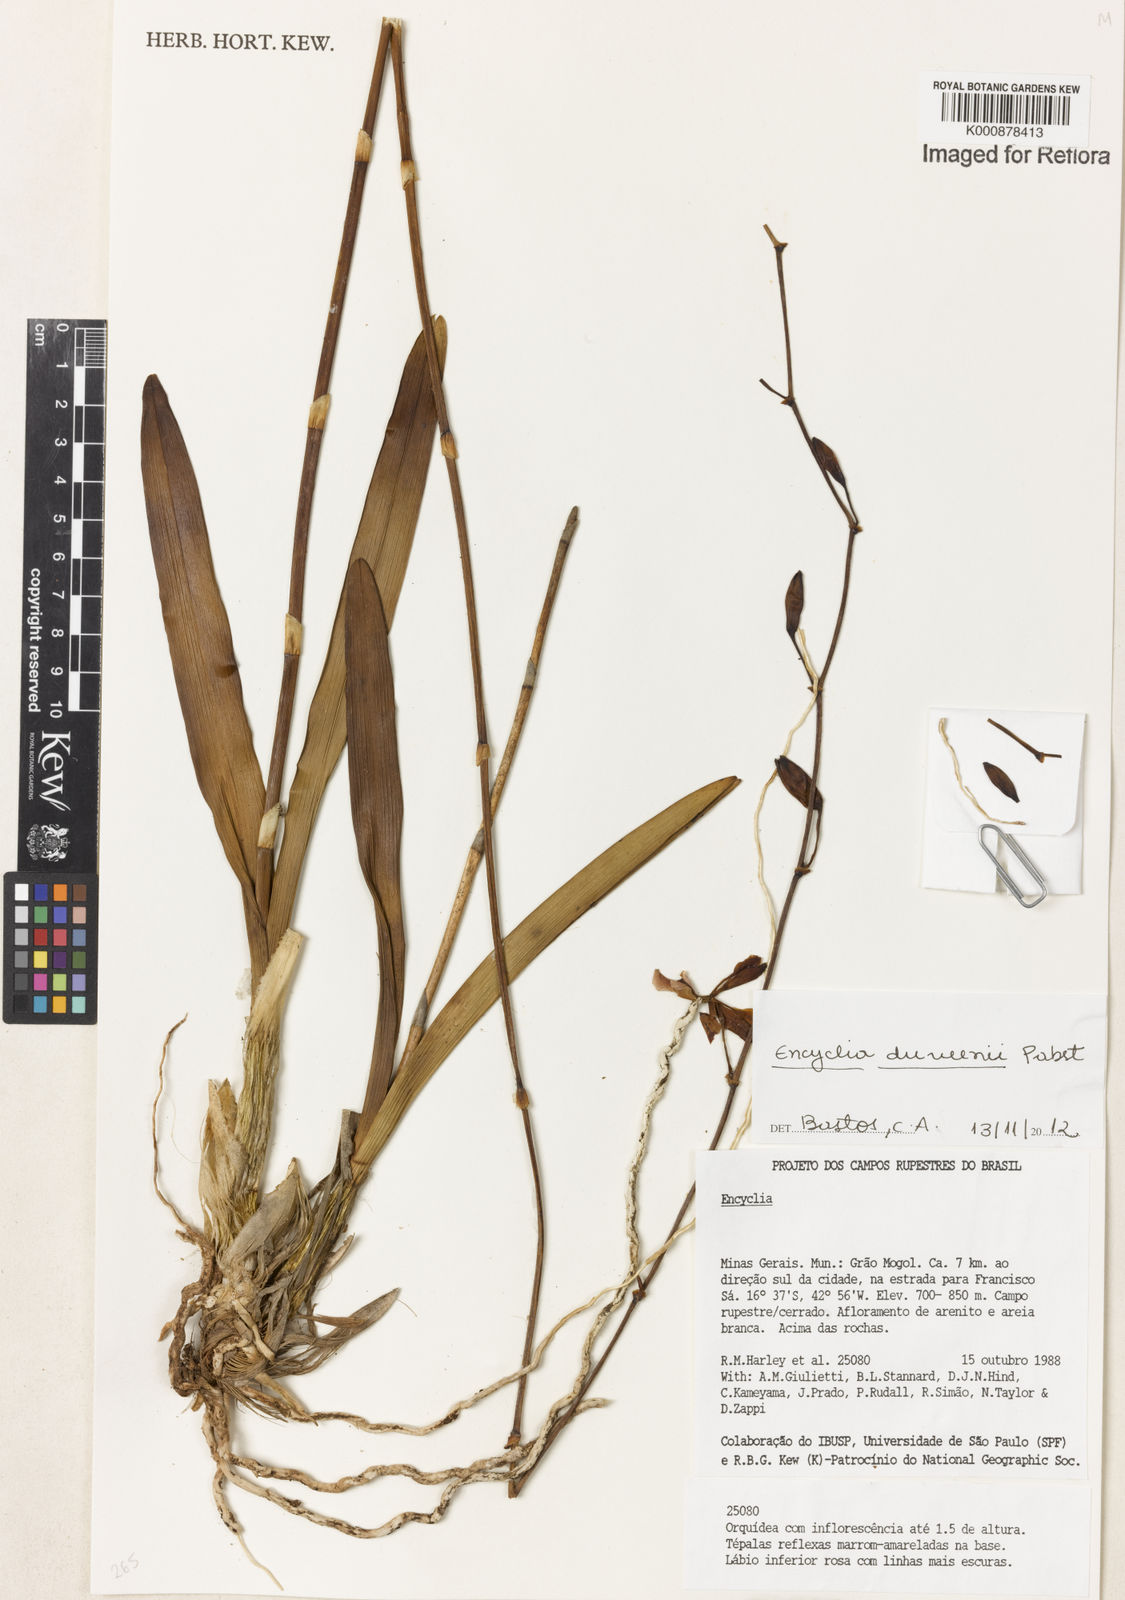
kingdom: Plantae
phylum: Tracheophyta
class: Liliopsida
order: Asparagales
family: Orchidaceae
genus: Encyclia
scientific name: Encyclia duveenii
